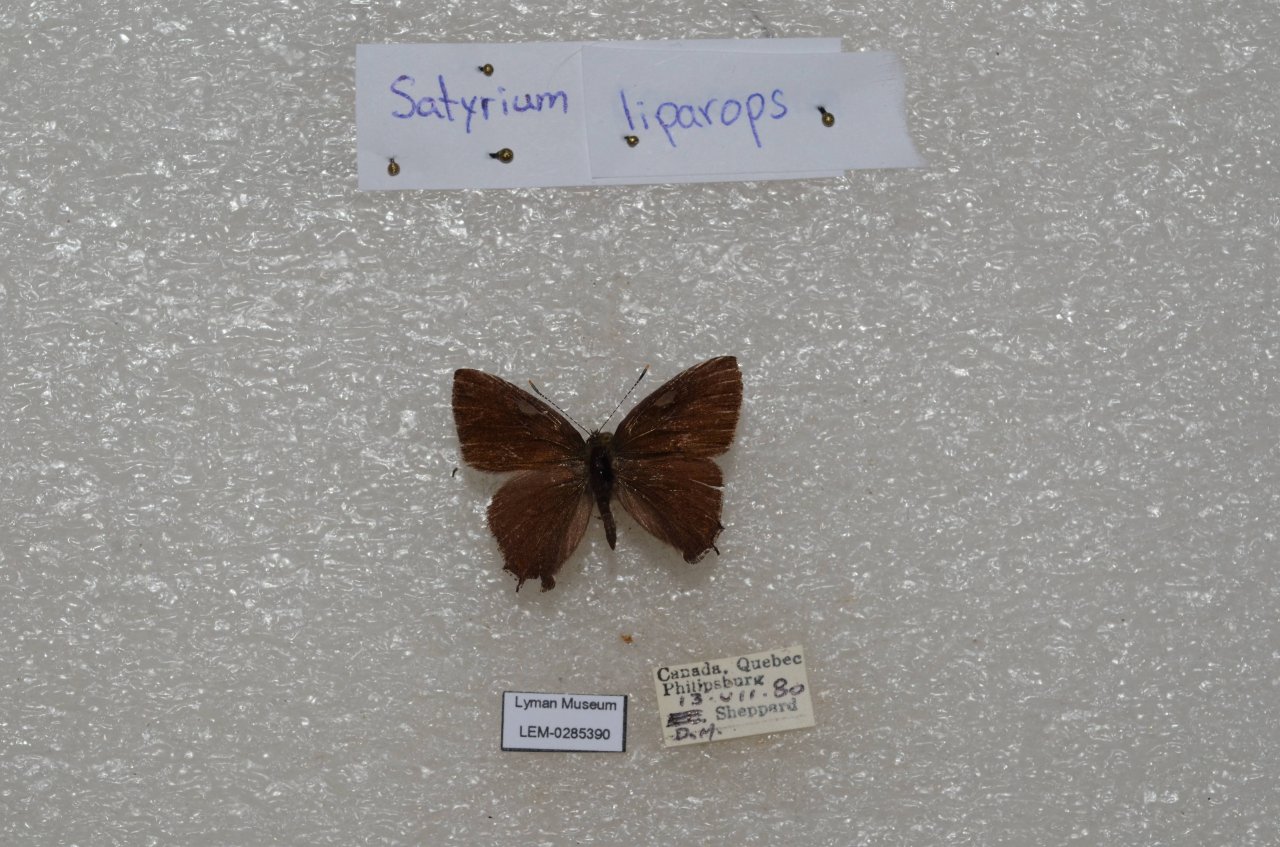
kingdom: Animalia
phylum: Arthropoda
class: Insecta
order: Lepidoptera
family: Lycaenidae
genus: Satyrium
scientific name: Satyrium liparops
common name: Striped Hairstreak
